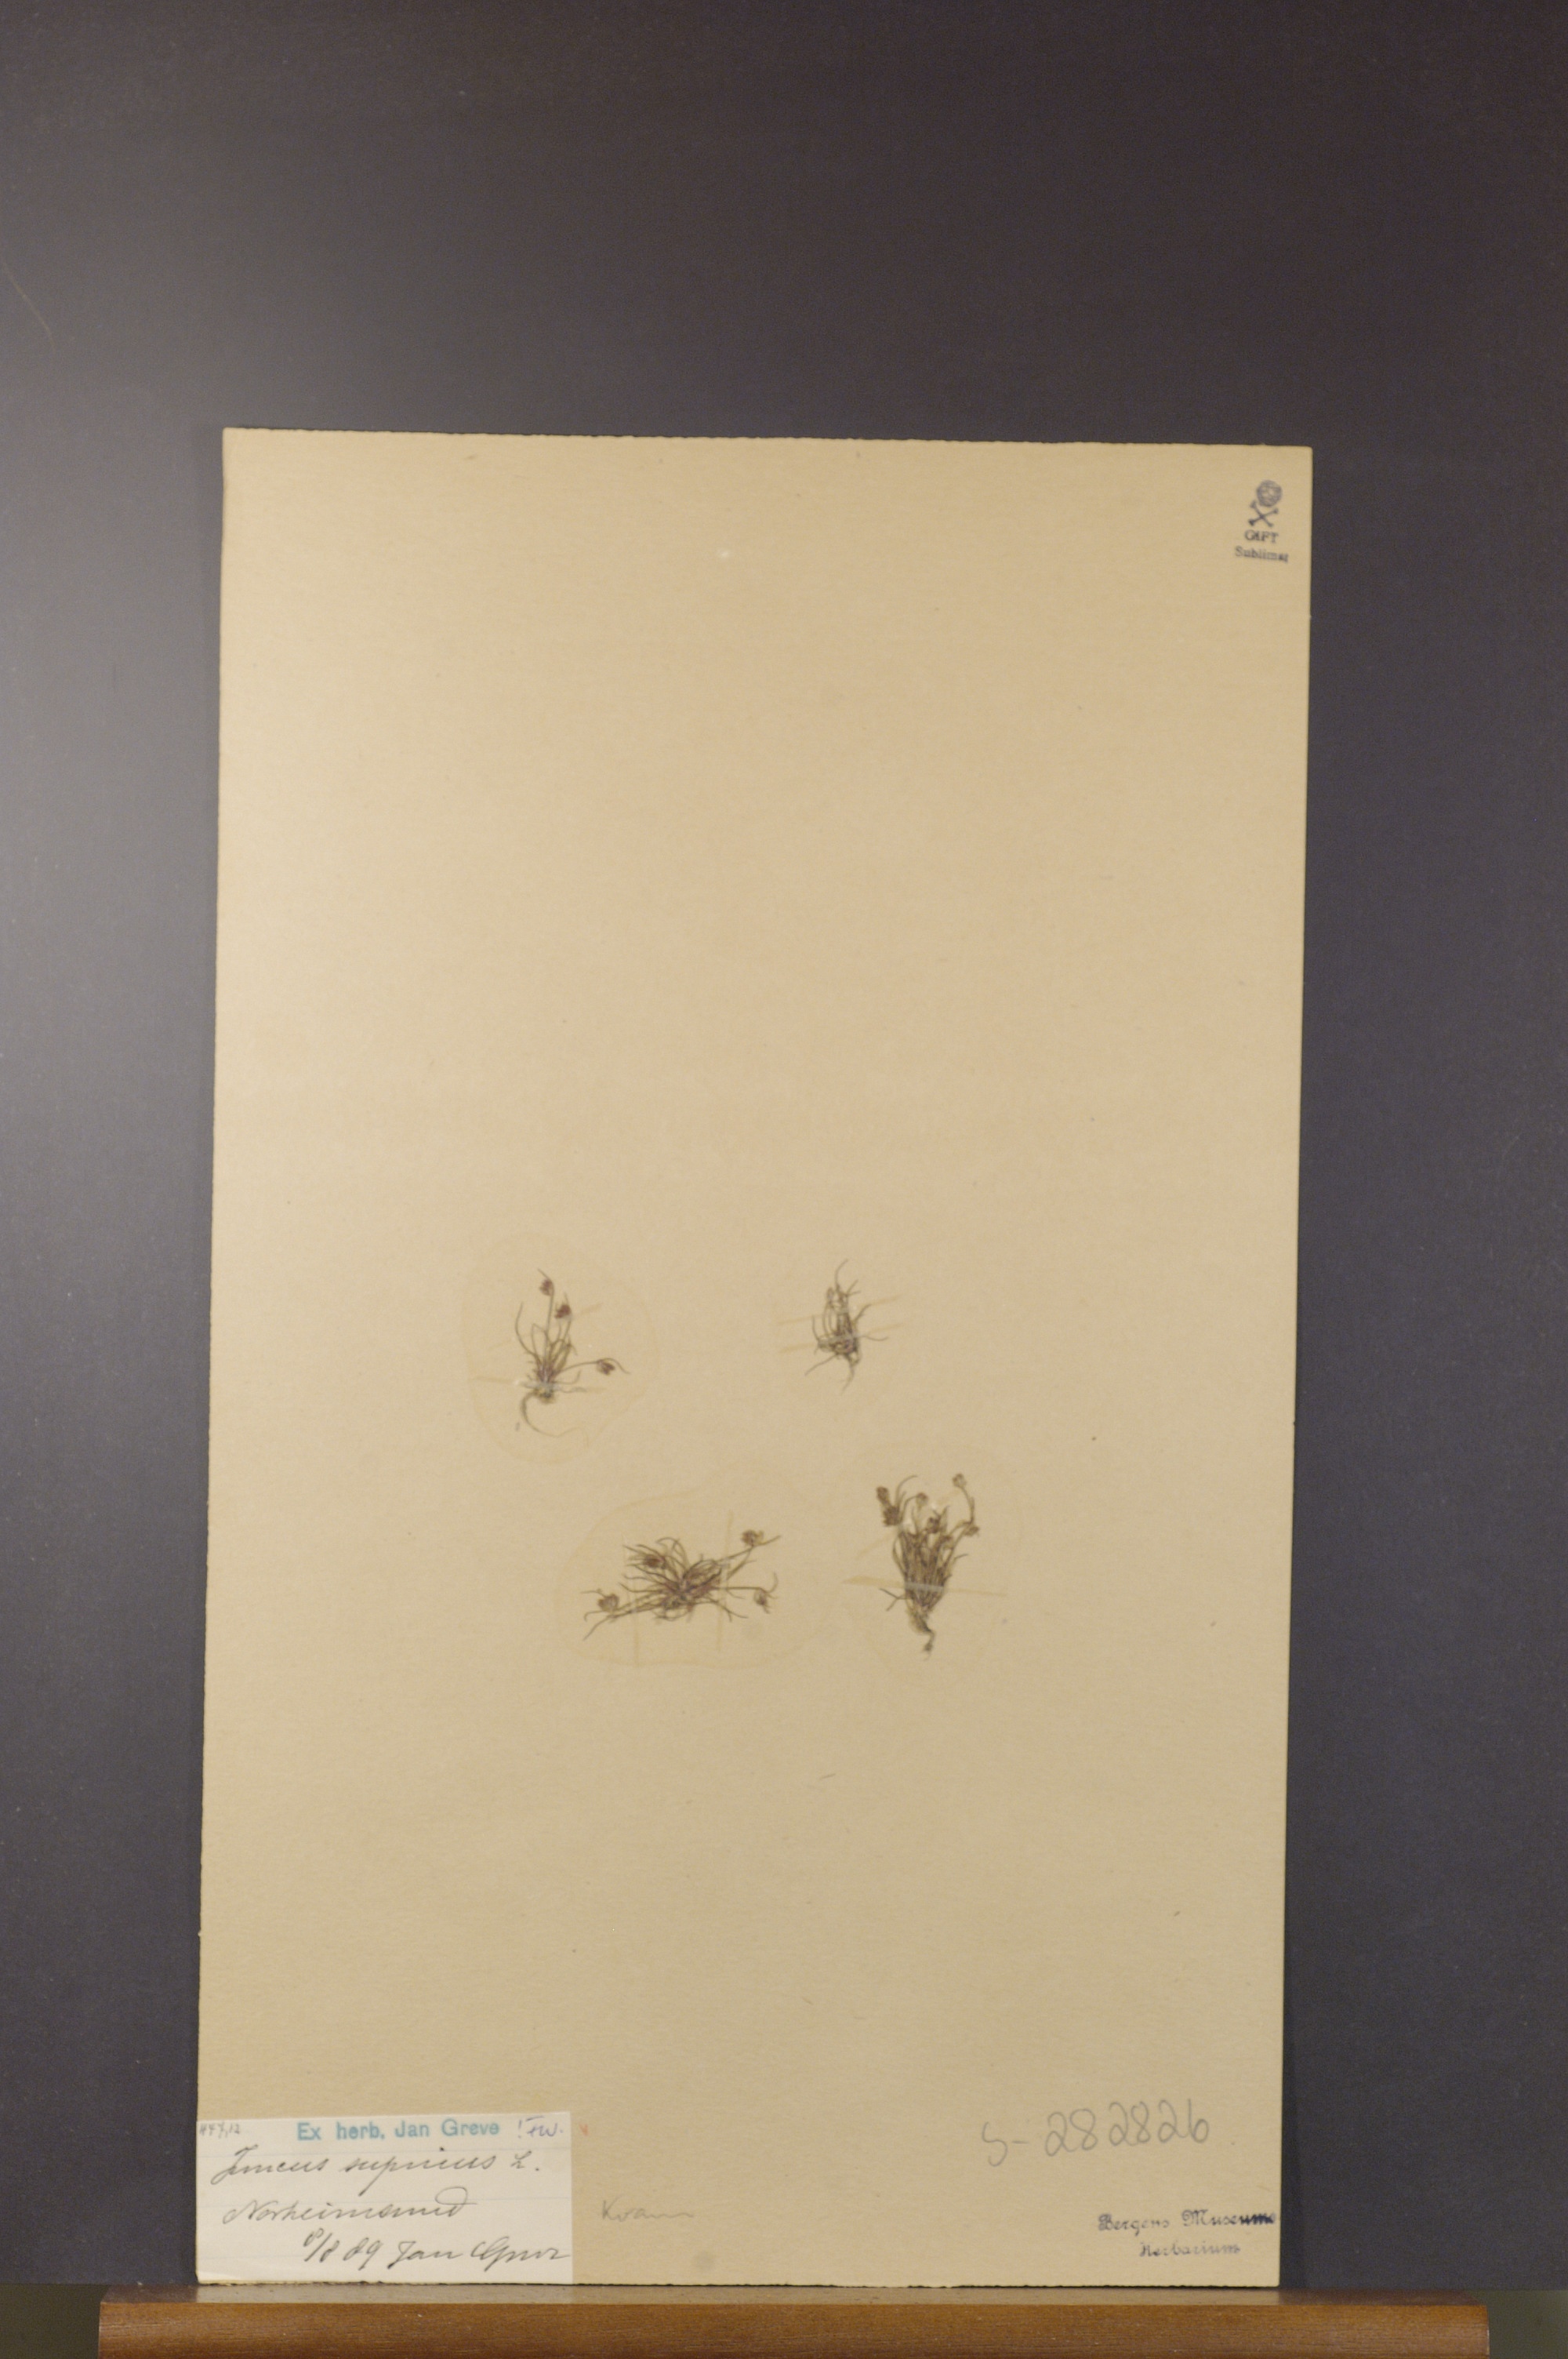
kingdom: Plantae
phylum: Tracheophyta
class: Liliopsida
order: Poales
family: Juncaceae
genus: Juncus
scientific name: Juncus bulbosus
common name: Bulbous rush
